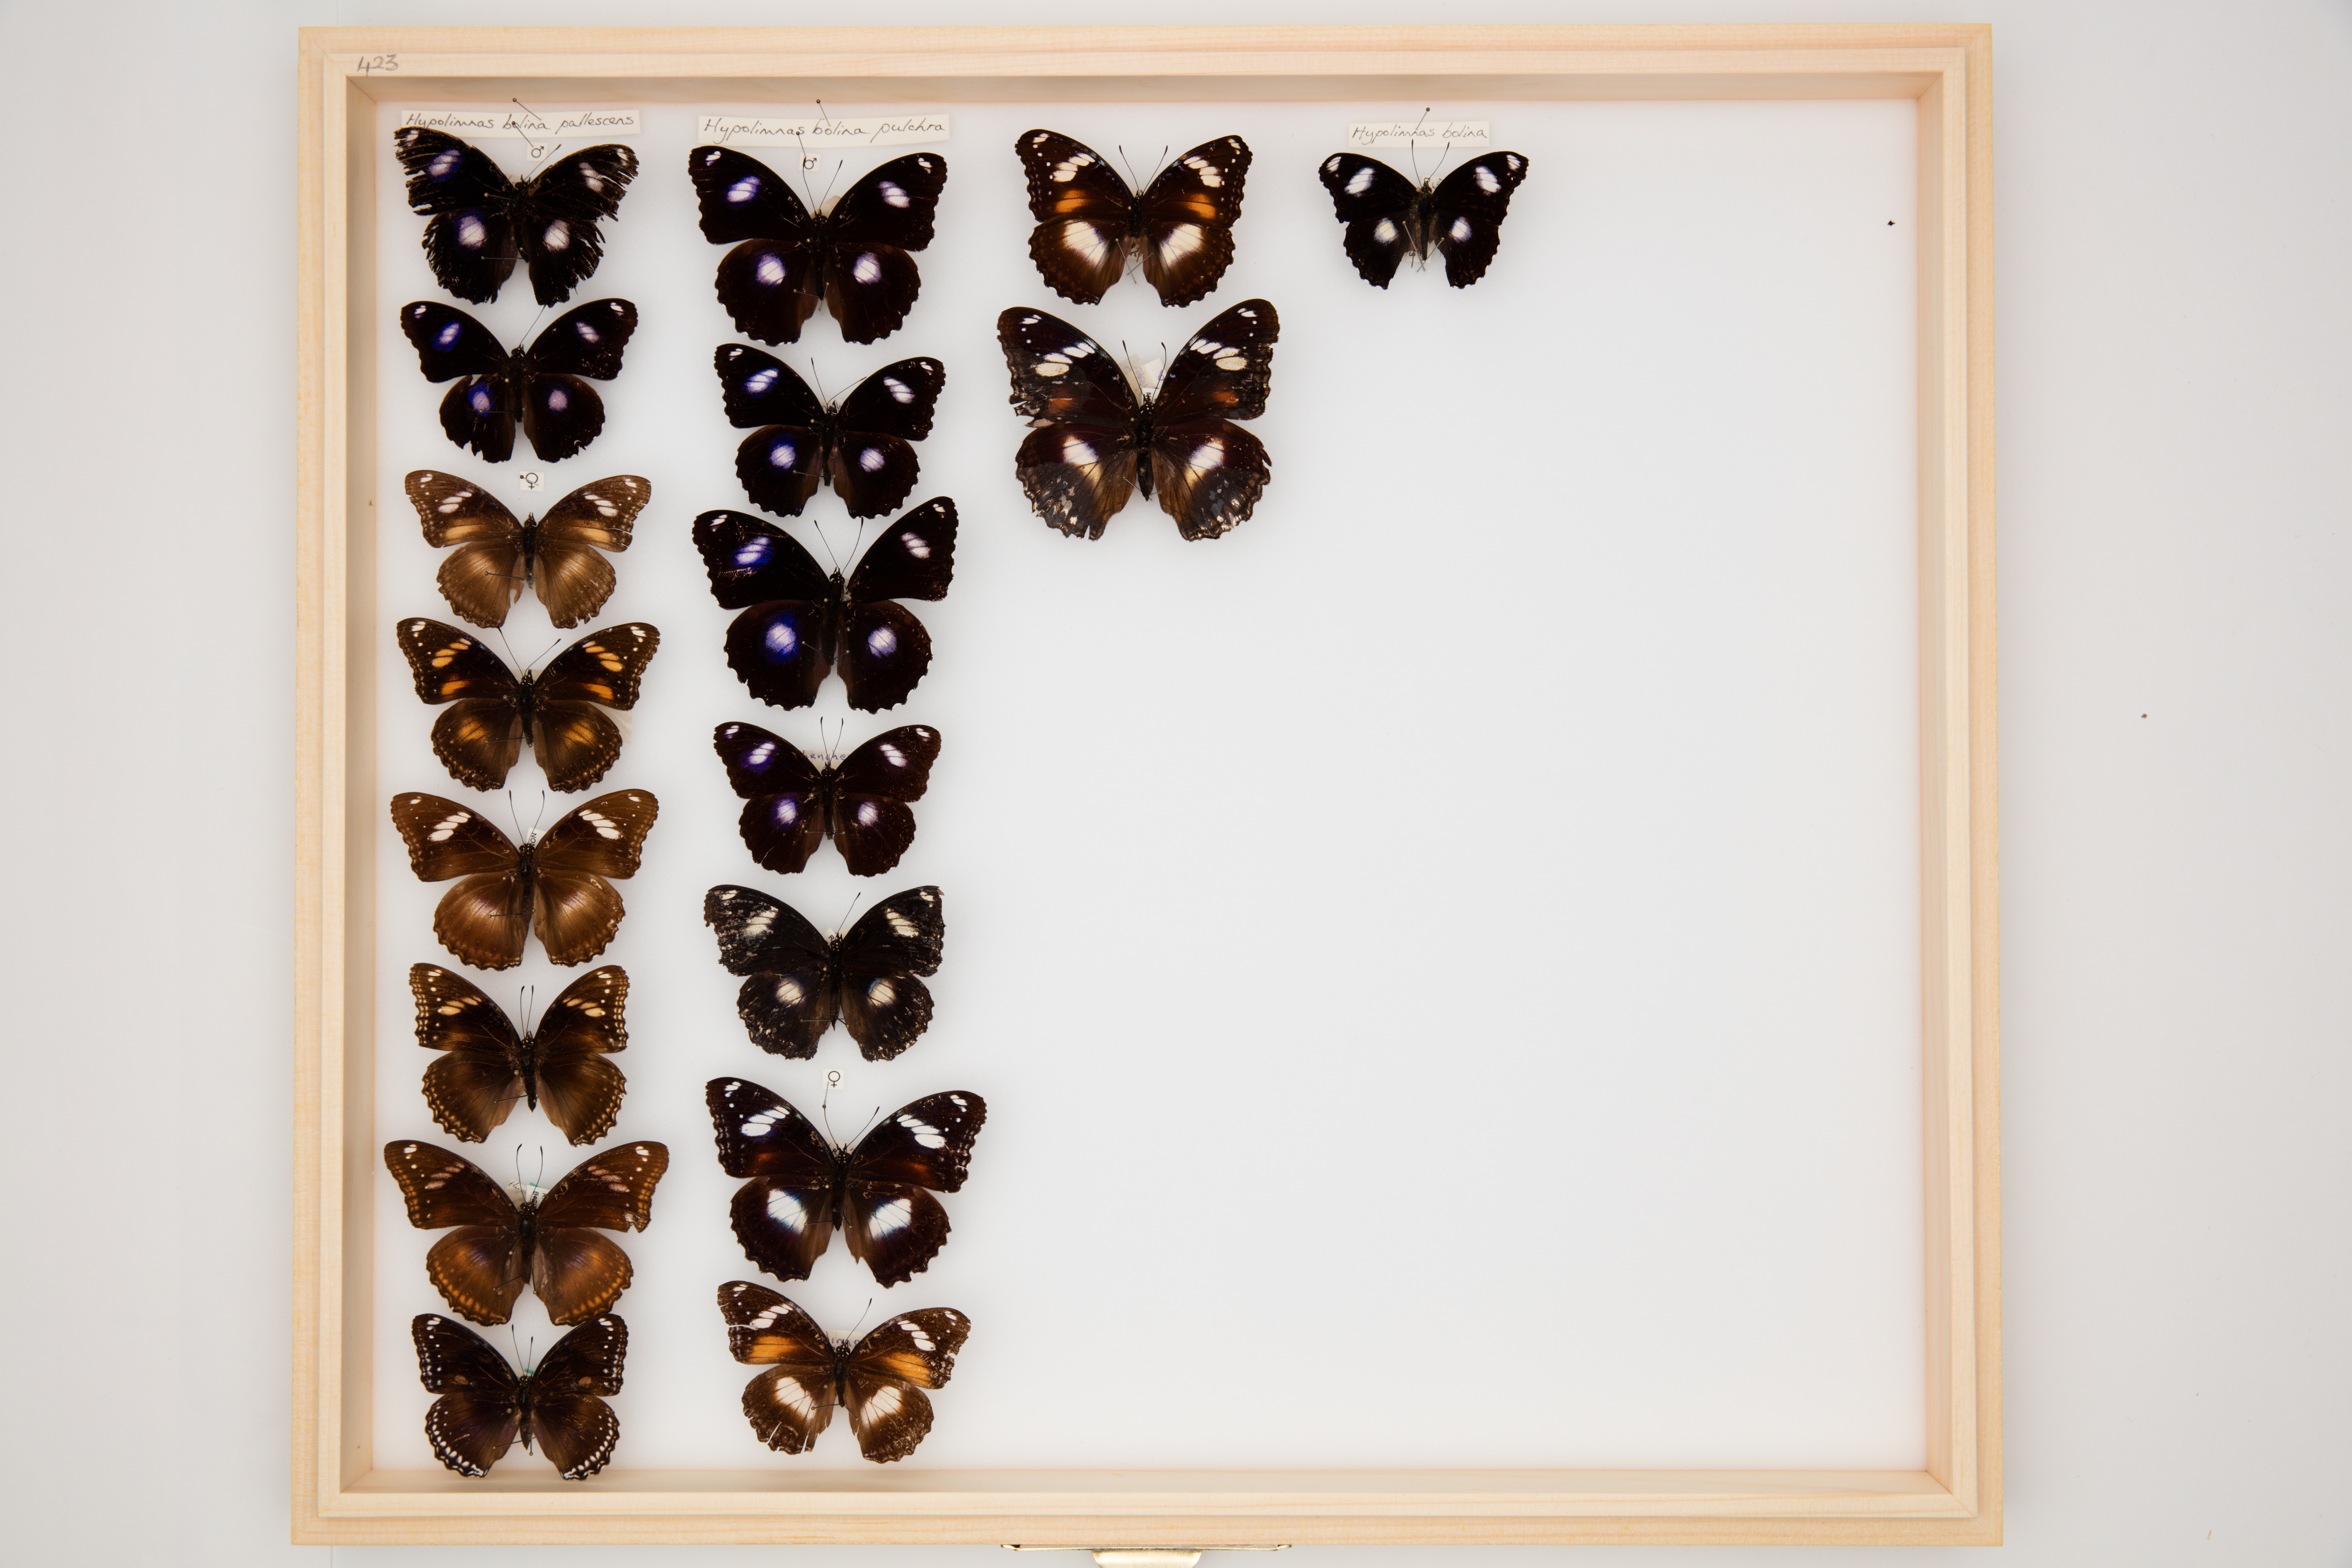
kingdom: Animalia
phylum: Arthropoda
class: Insecta
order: Lepidoptera
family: Nymphalidae
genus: Hypolimnas
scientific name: Hypolimnas bolina
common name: Great eggfly
